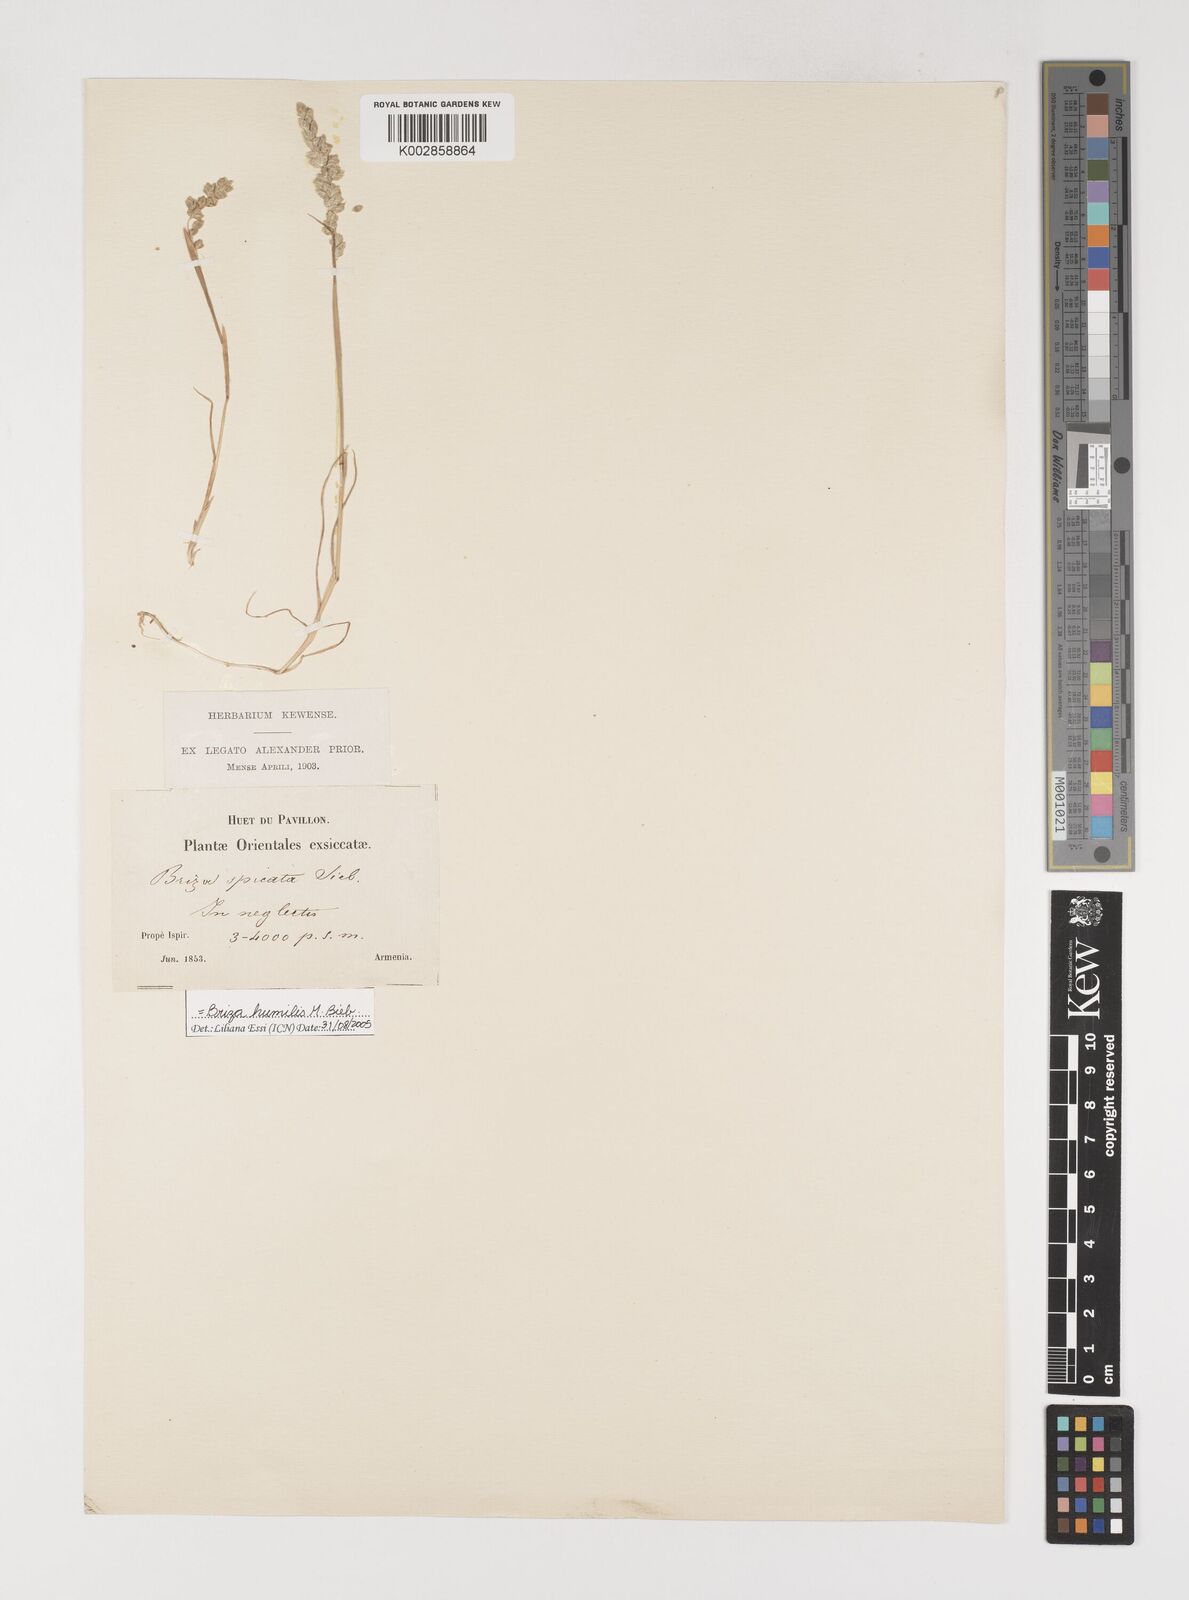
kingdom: Plantae
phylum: Tracheophyta
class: Liliopsida
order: Poales
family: Poaceae
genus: Briza
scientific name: Briza humilis
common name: Spiked quaking grass
